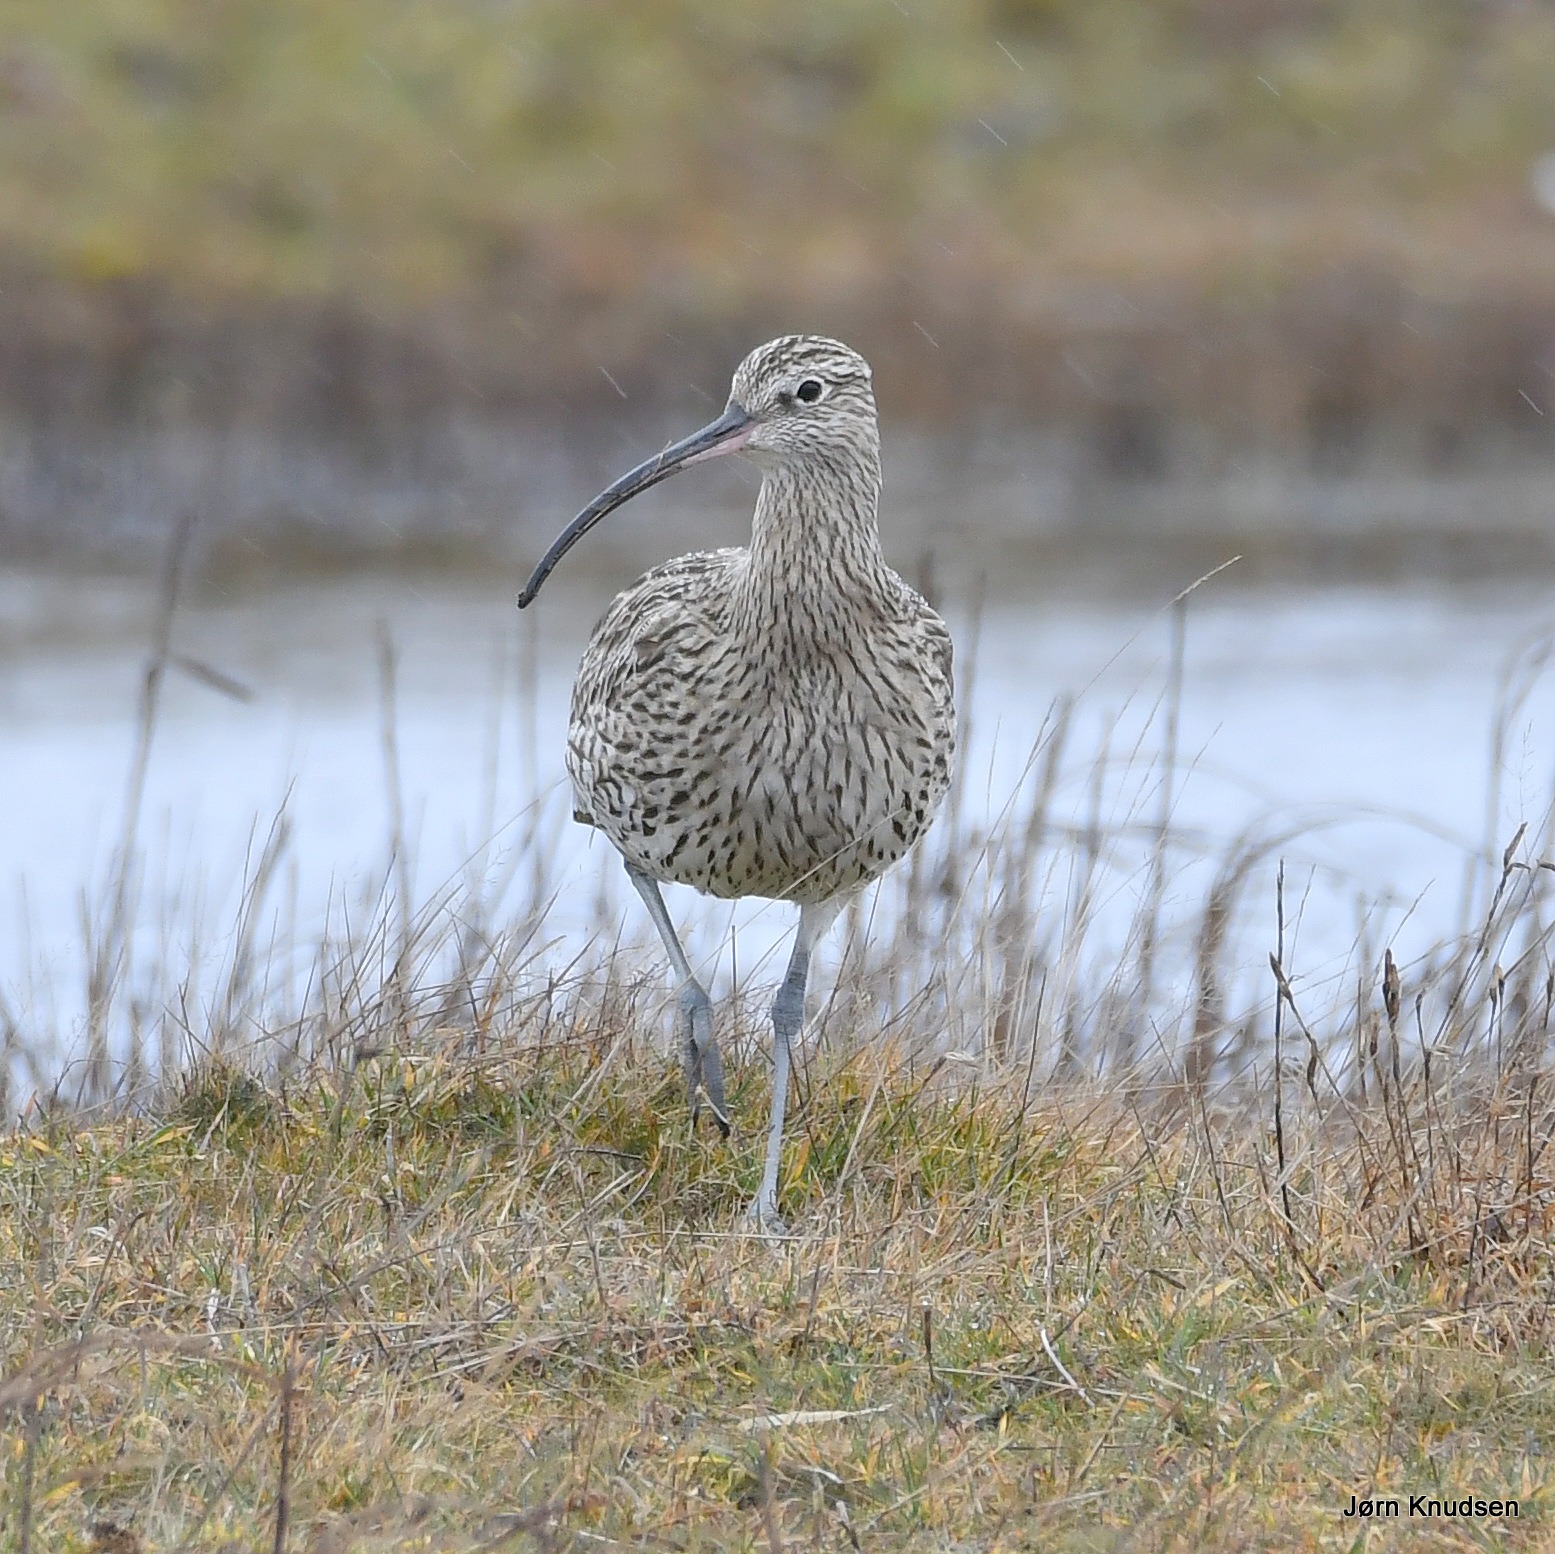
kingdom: Animalia
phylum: Chordata
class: Aves
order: Charadriiformes
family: Scolopacidae
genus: Numenius
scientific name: Numenius arquata
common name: Storspove
